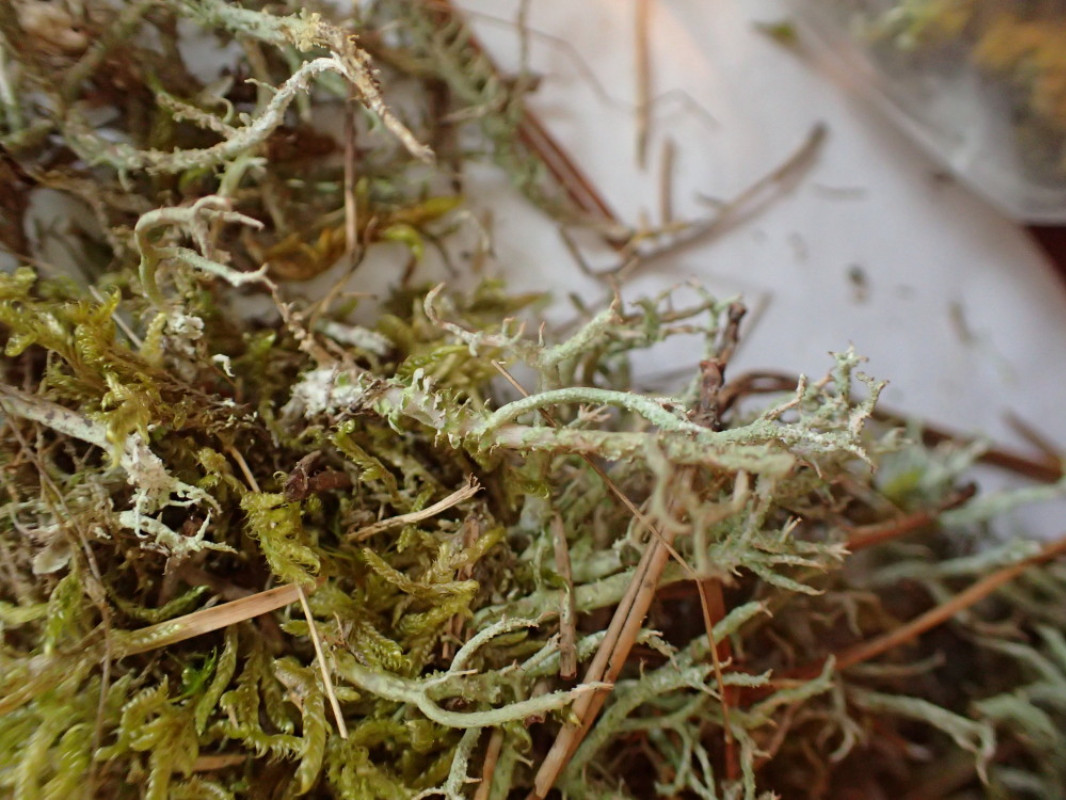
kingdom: Fungi
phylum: Ascomycota
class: Lecanoromycetes
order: Lecanorales
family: Cladoniaceae
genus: Cladonia
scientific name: Cladonia scabriuscula
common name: ru bægerlav
